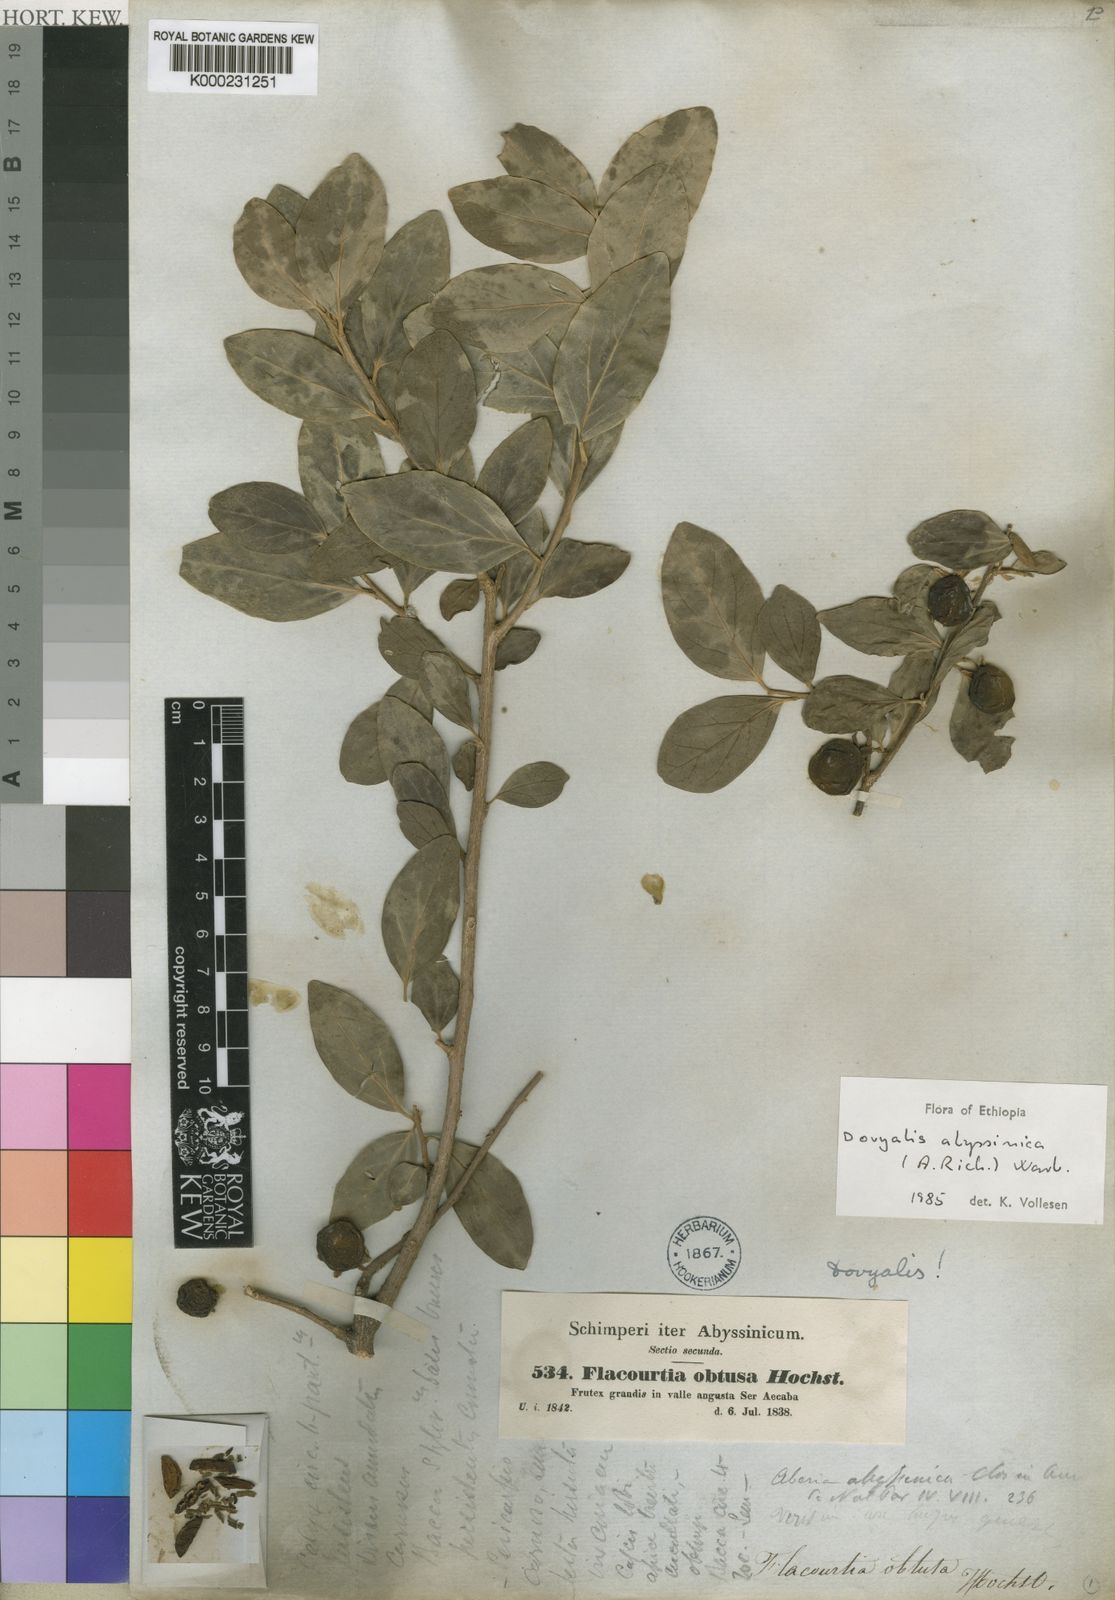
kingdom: Plantae
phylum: Tracheophyta
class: Magnoliopsida
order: Malpighiales
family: Salicaceae
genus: Dovyalis
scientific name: Dovyalis abyssinica
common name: Abyssinian-gooseberry
